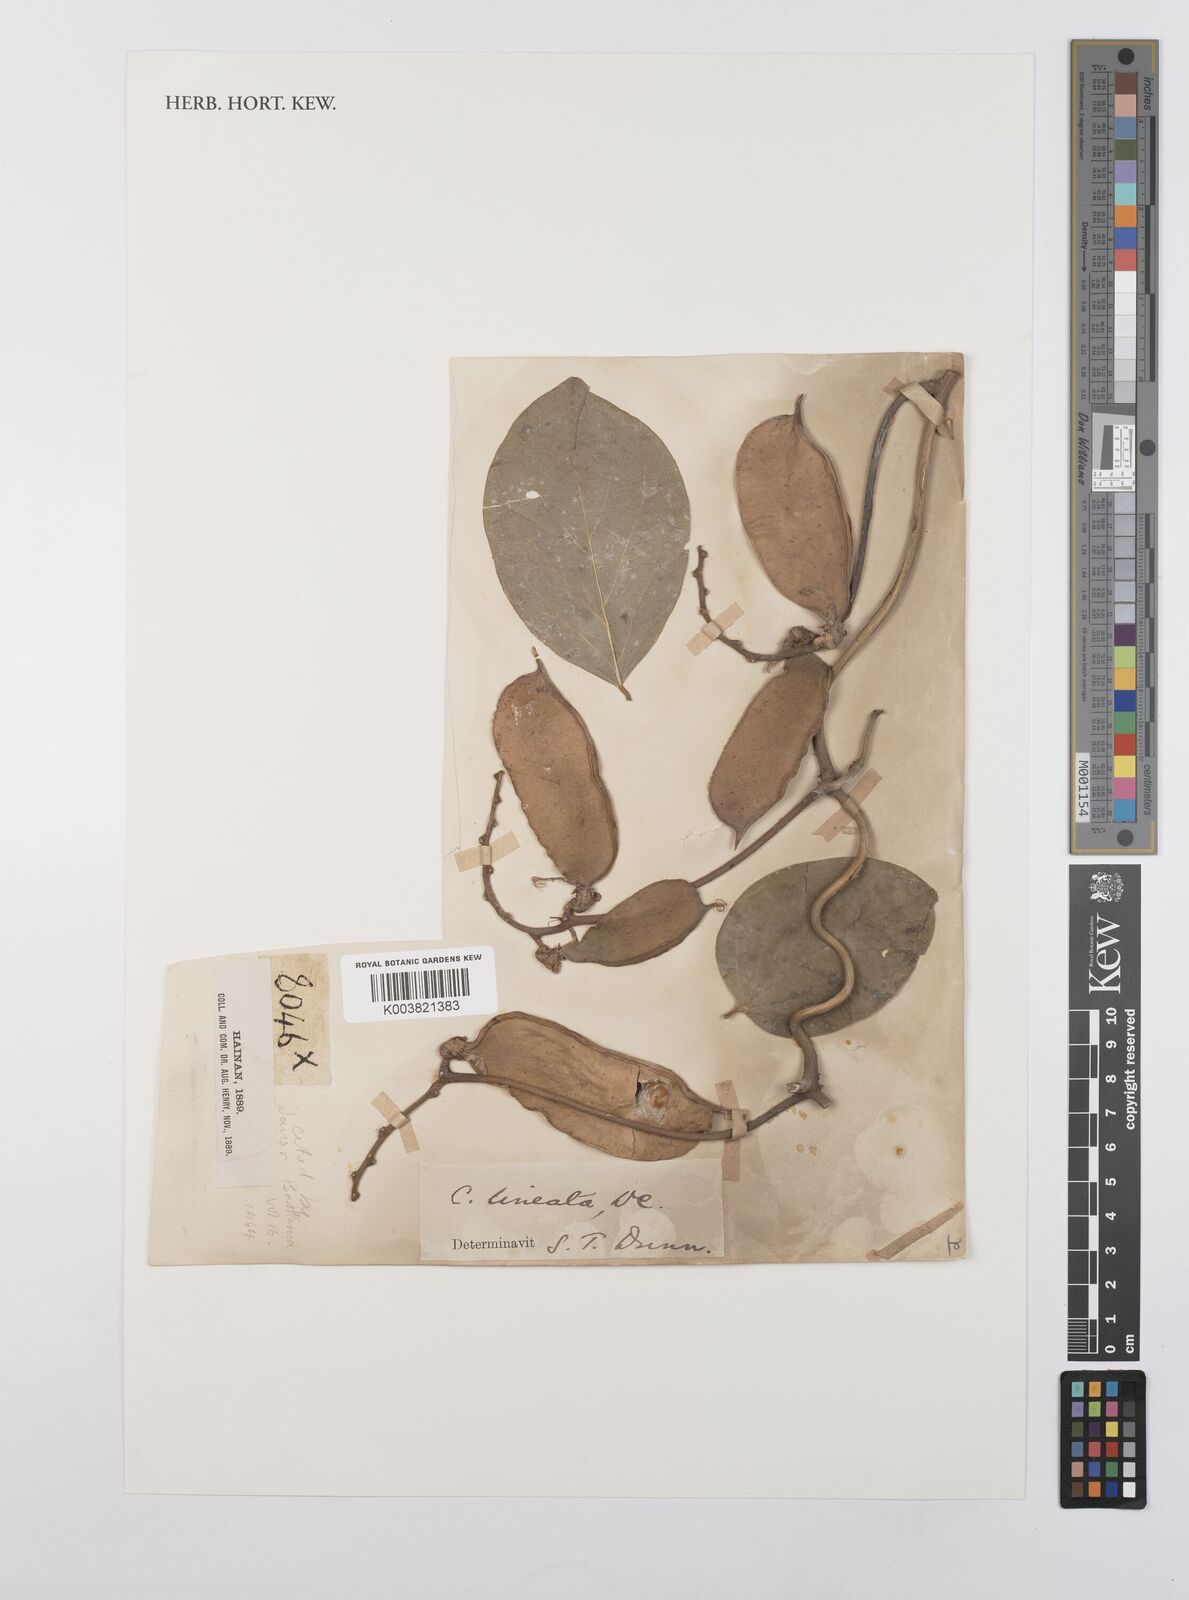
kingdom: Plantae
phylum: Tracheophyta
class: Magnoliopsida
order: Fabales
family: Fabaceae
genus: Canavalia
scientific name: Canavalia lineata
